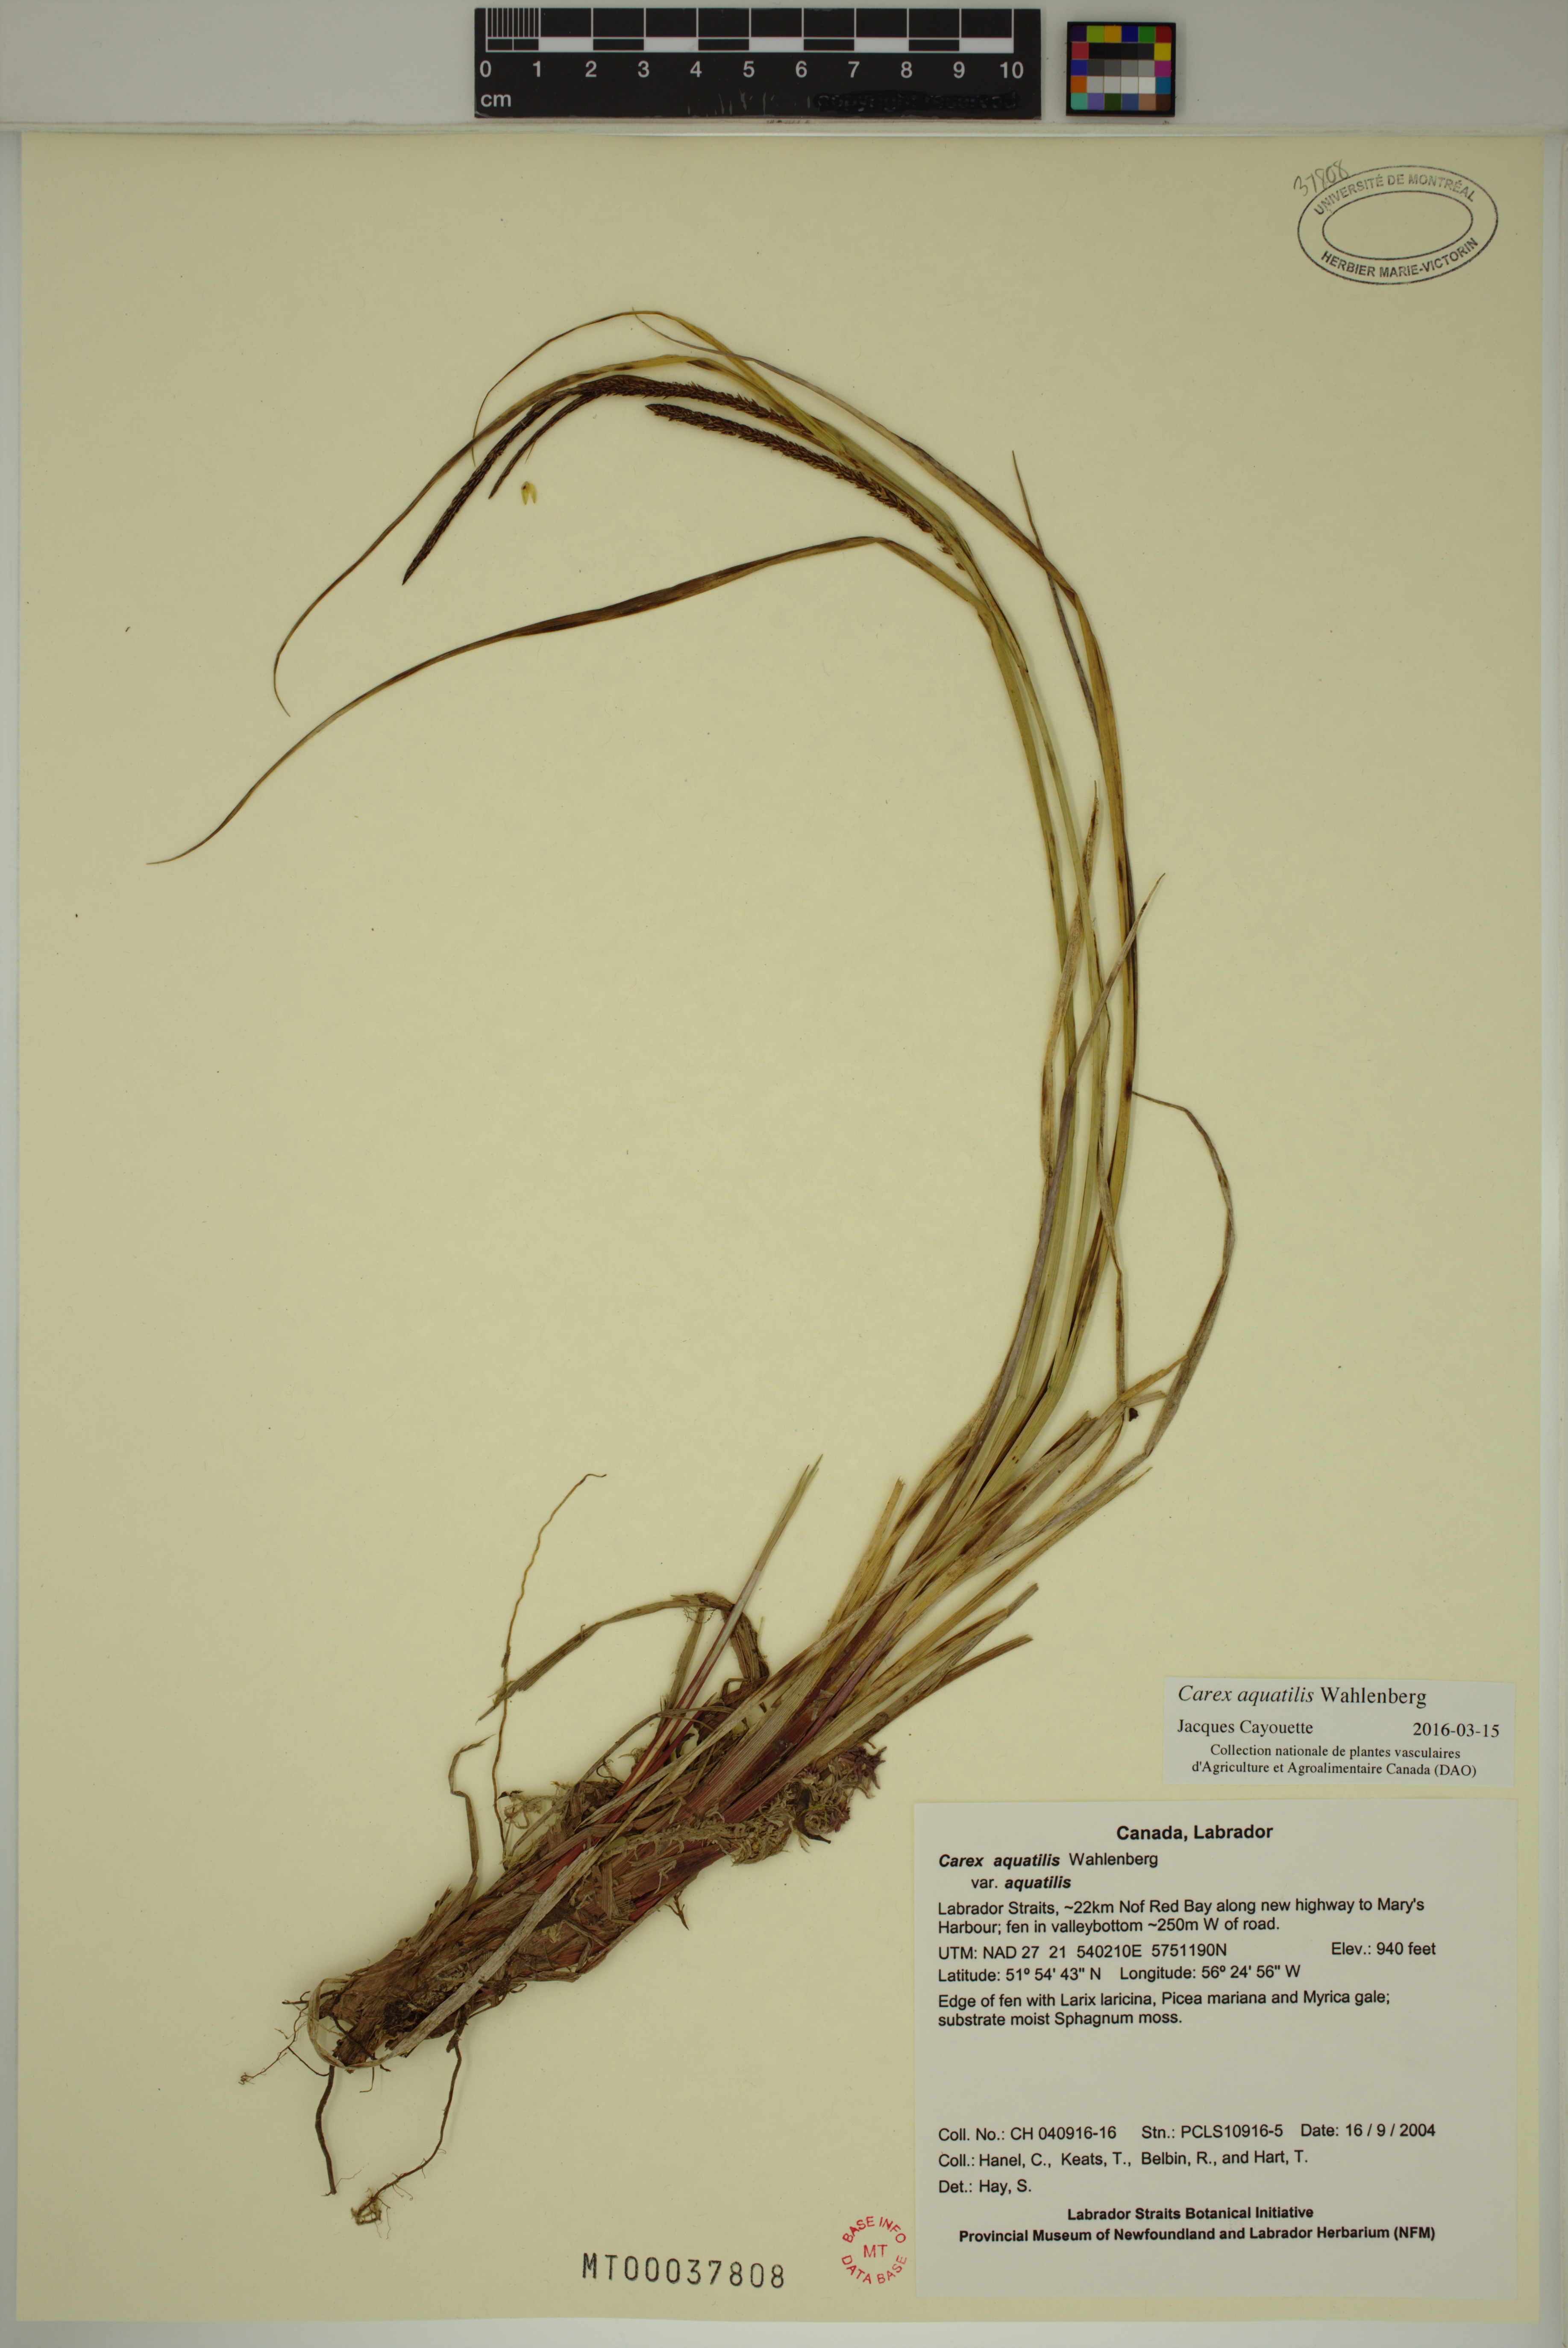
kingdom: Plantae
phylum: Tracheophyta
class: Liliopsida
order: Poales
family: Cyperaceae
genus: Carex
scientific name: Carex aquatilis
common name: Water sedge
